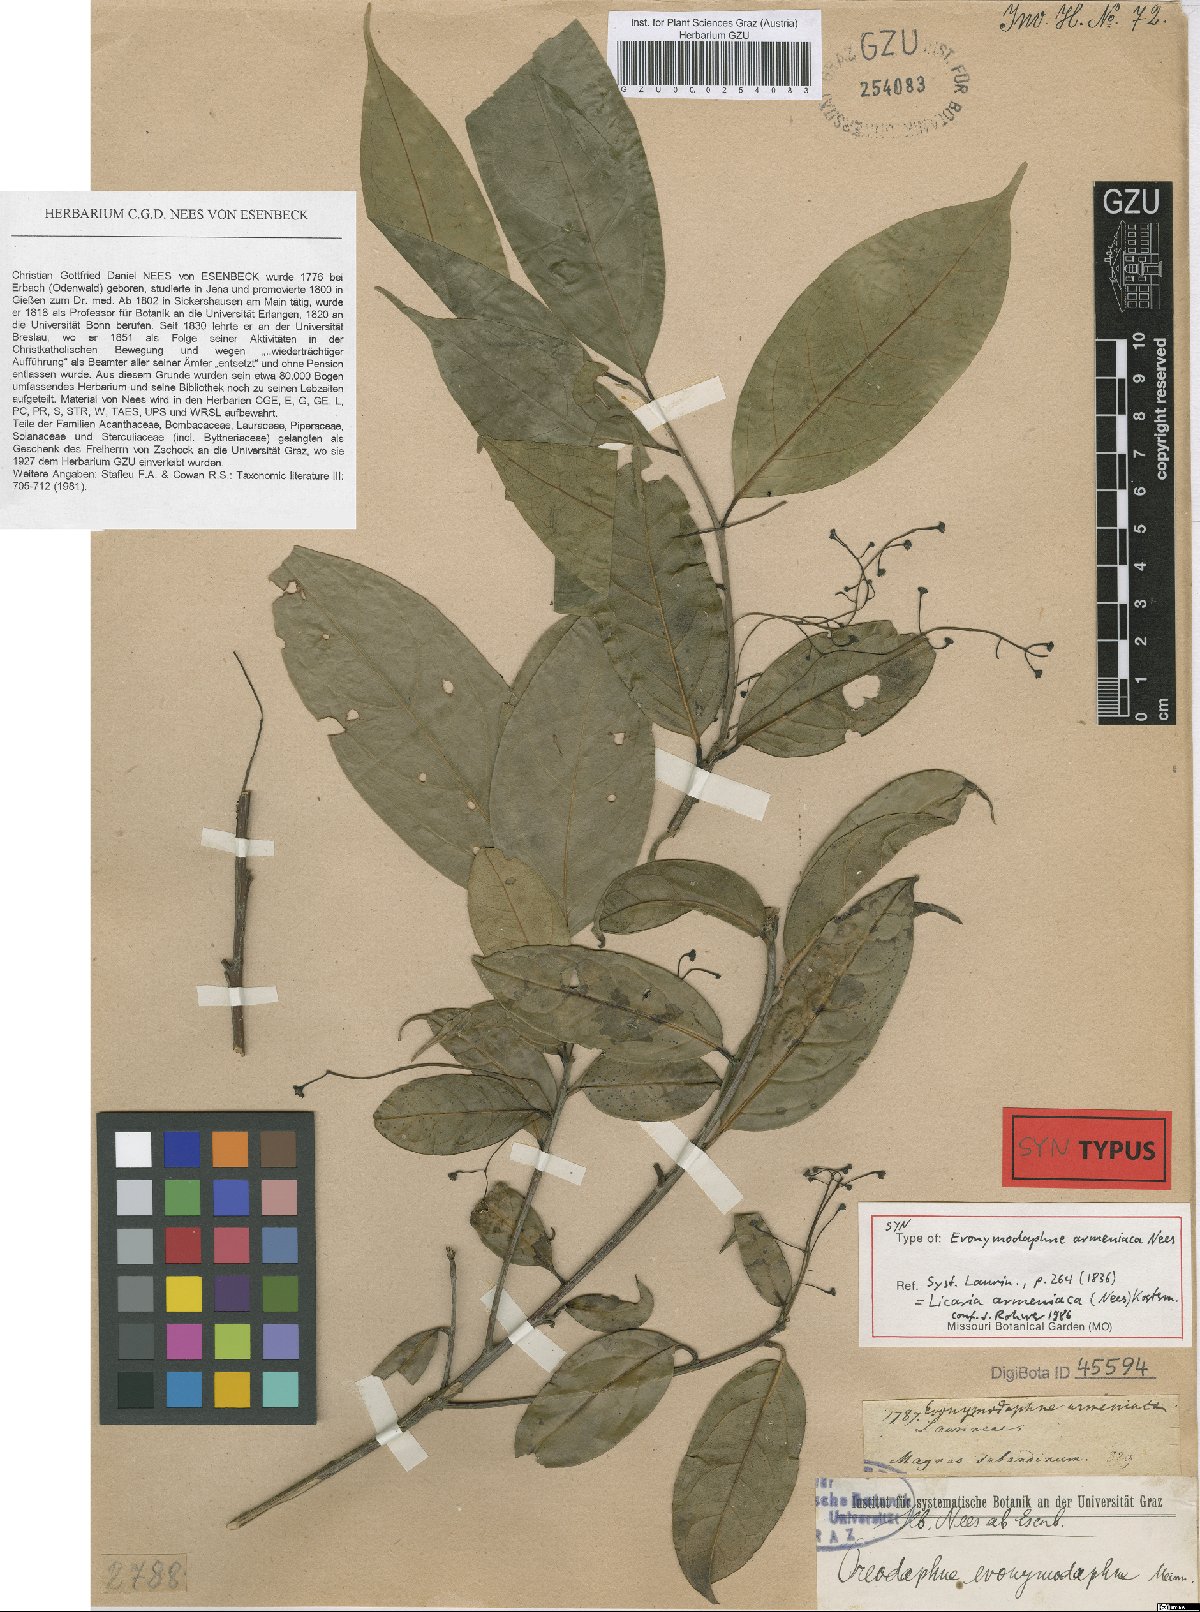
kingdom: Plantae
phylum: Tracheophyta
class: Magnoliopsida
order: Laurales
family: Lauraceae
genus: Licaria
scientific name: Licaria armeniaca
